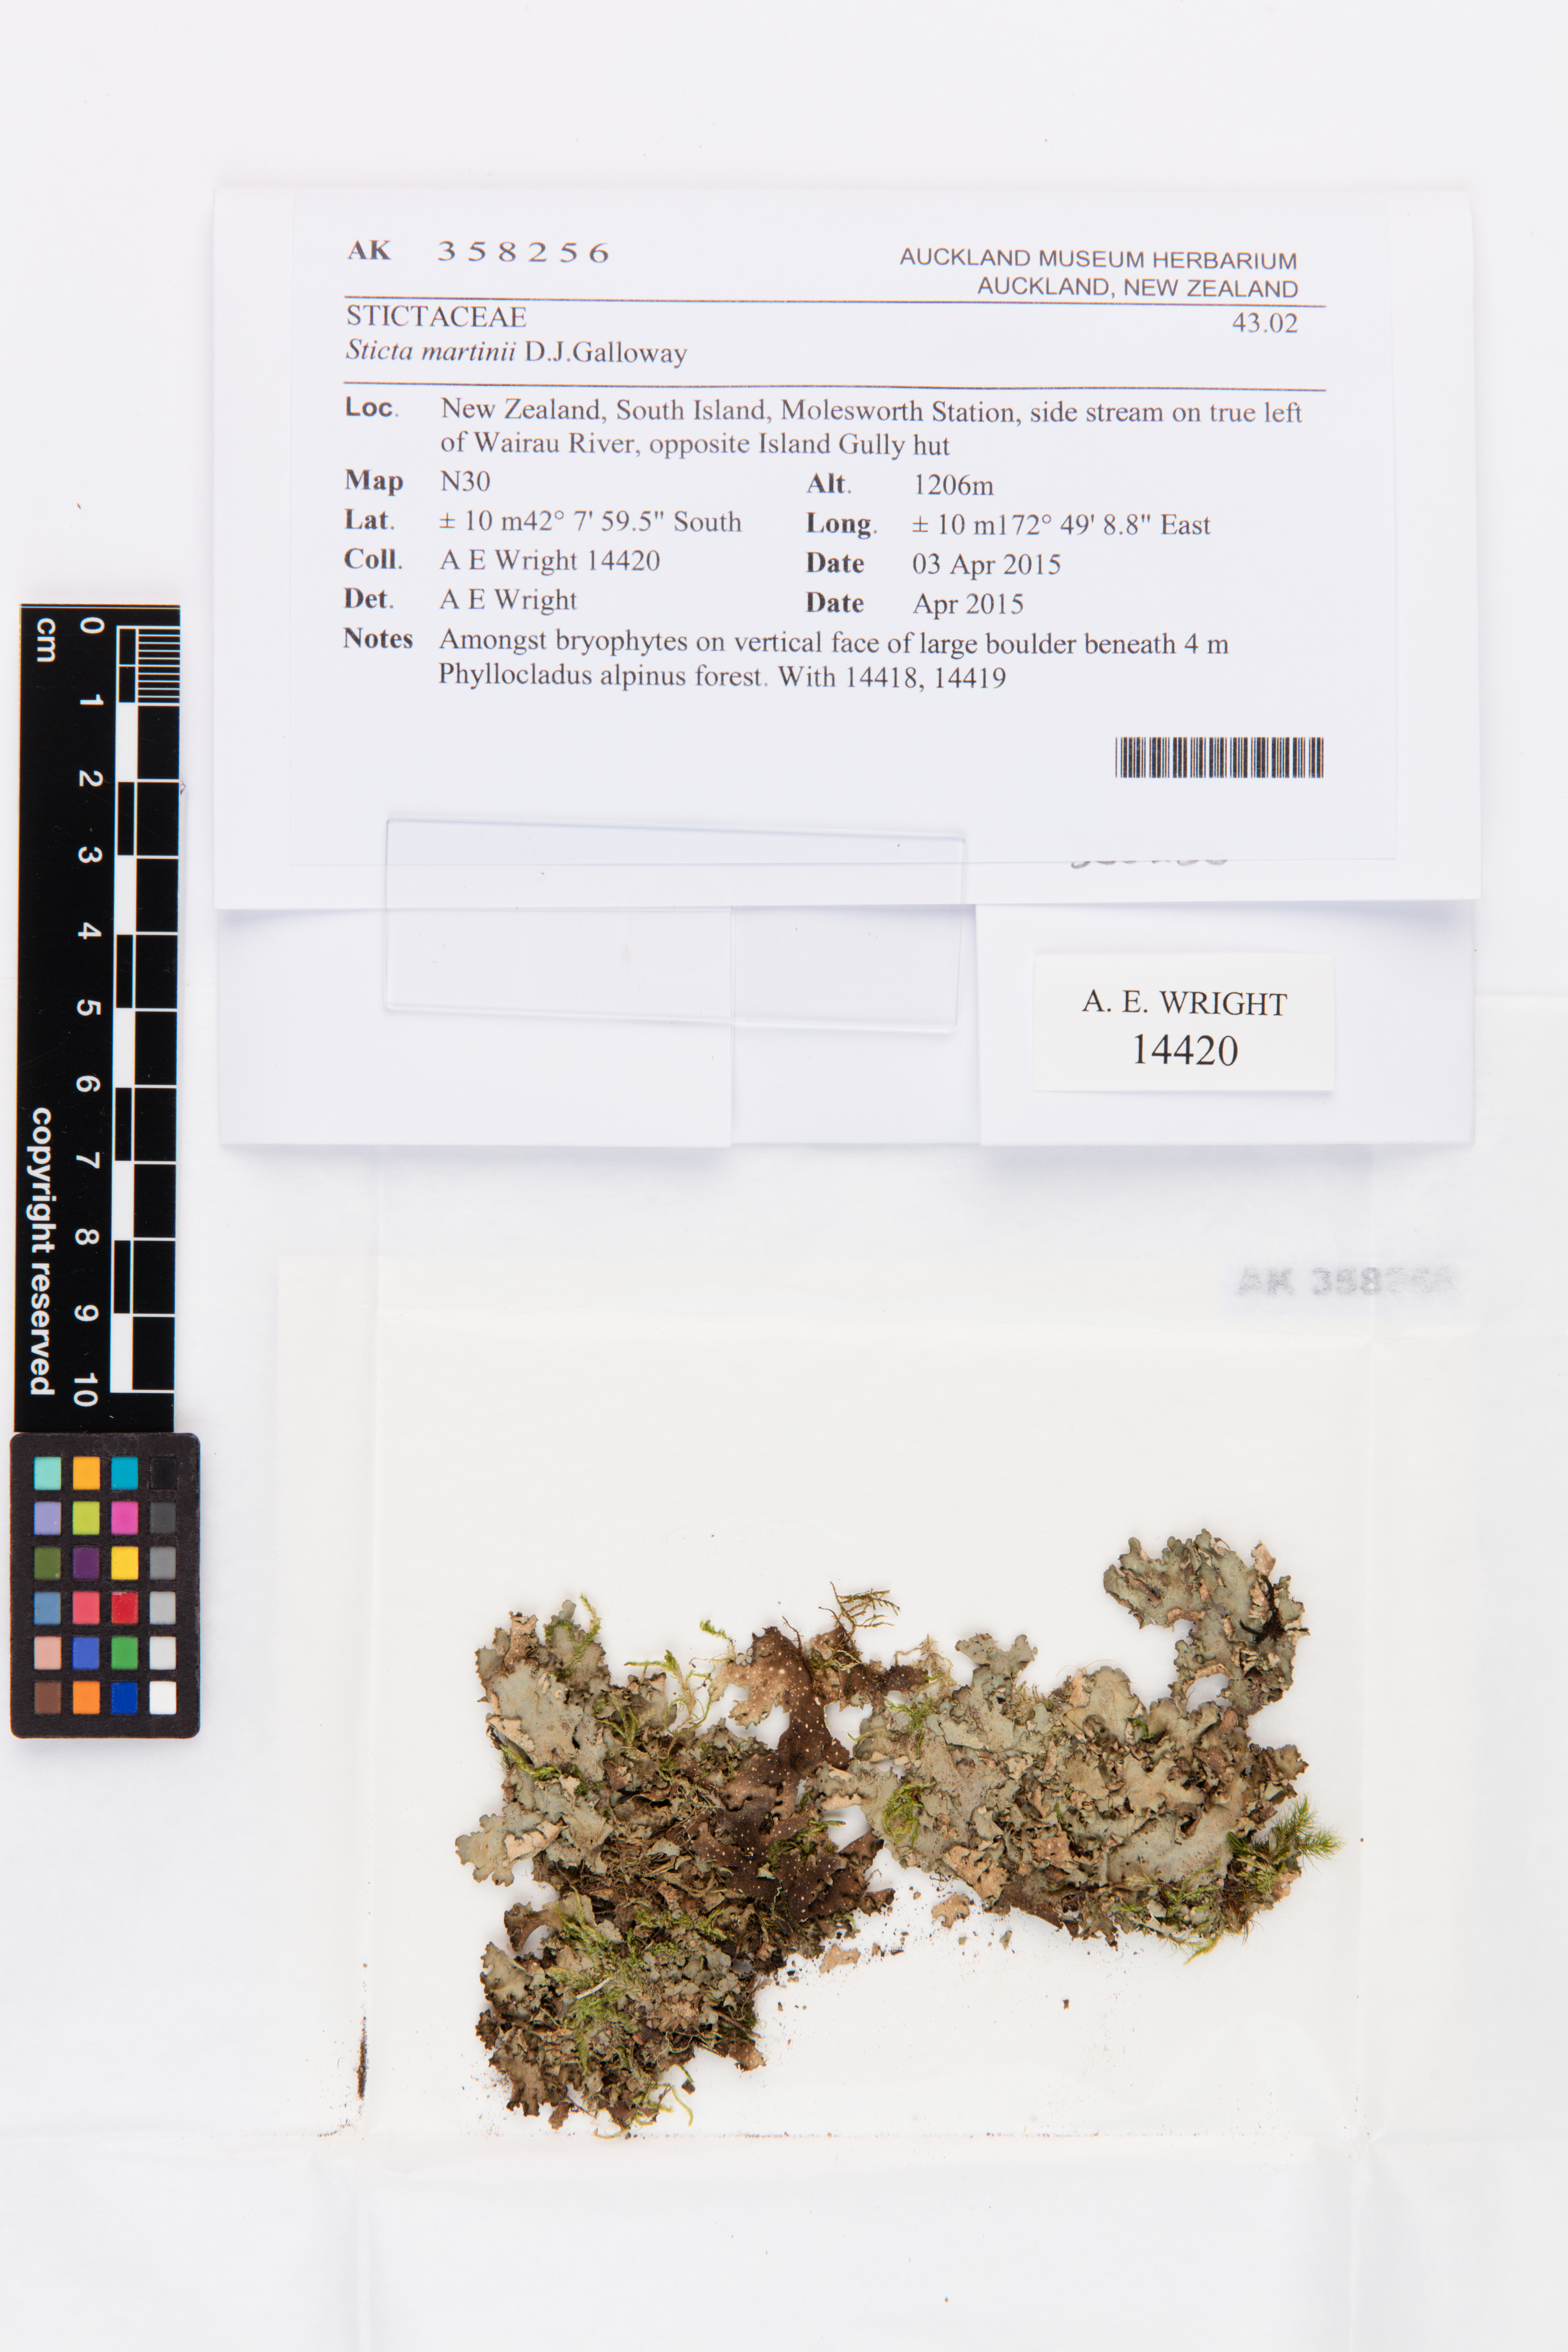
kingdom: Fungi
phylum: Ascomycota
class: Lecanoromycetes
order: Peltigerales
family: Lobariaceae
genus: Sticta
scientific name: Sticta martinii
